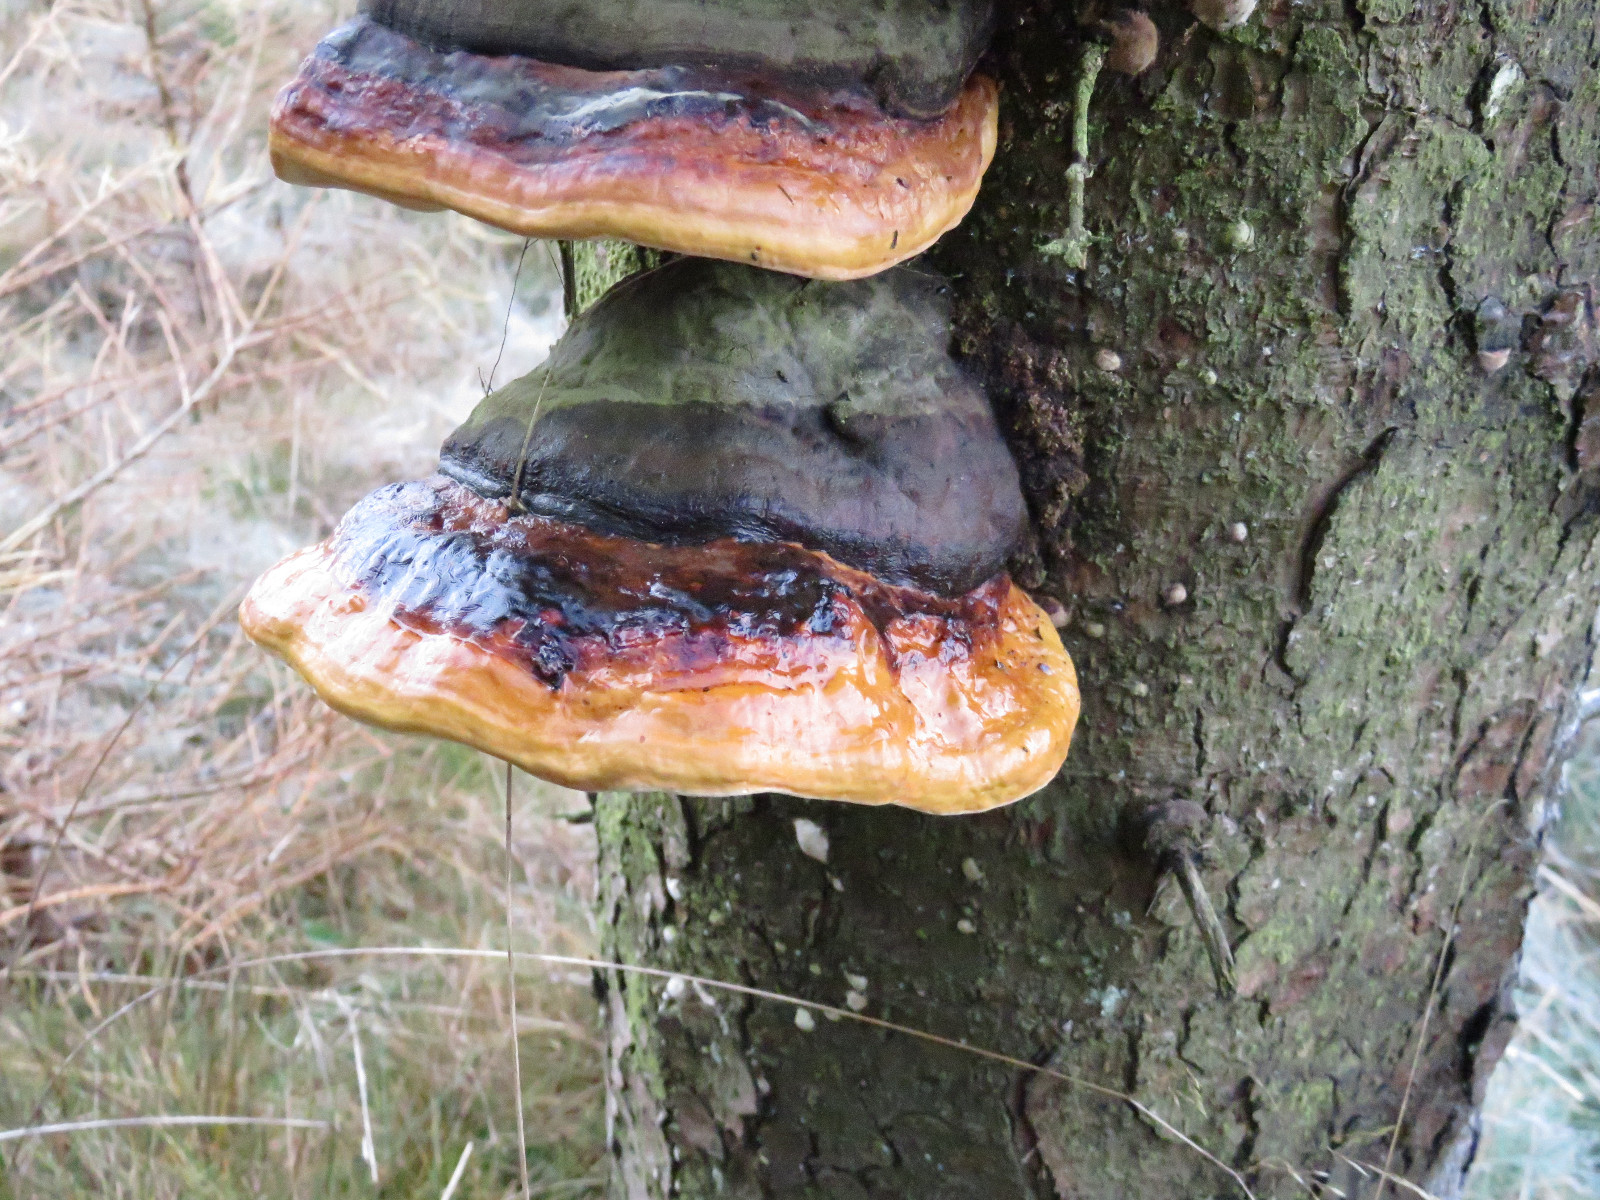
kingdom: Fungi
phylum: Basidiomycota
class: Agaricomycetes
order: Polyporales
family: Fomitopsidaceae
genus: Fomitopsis
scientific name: Fomitopsis pinicola
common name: randbæltet hovporesvamp
